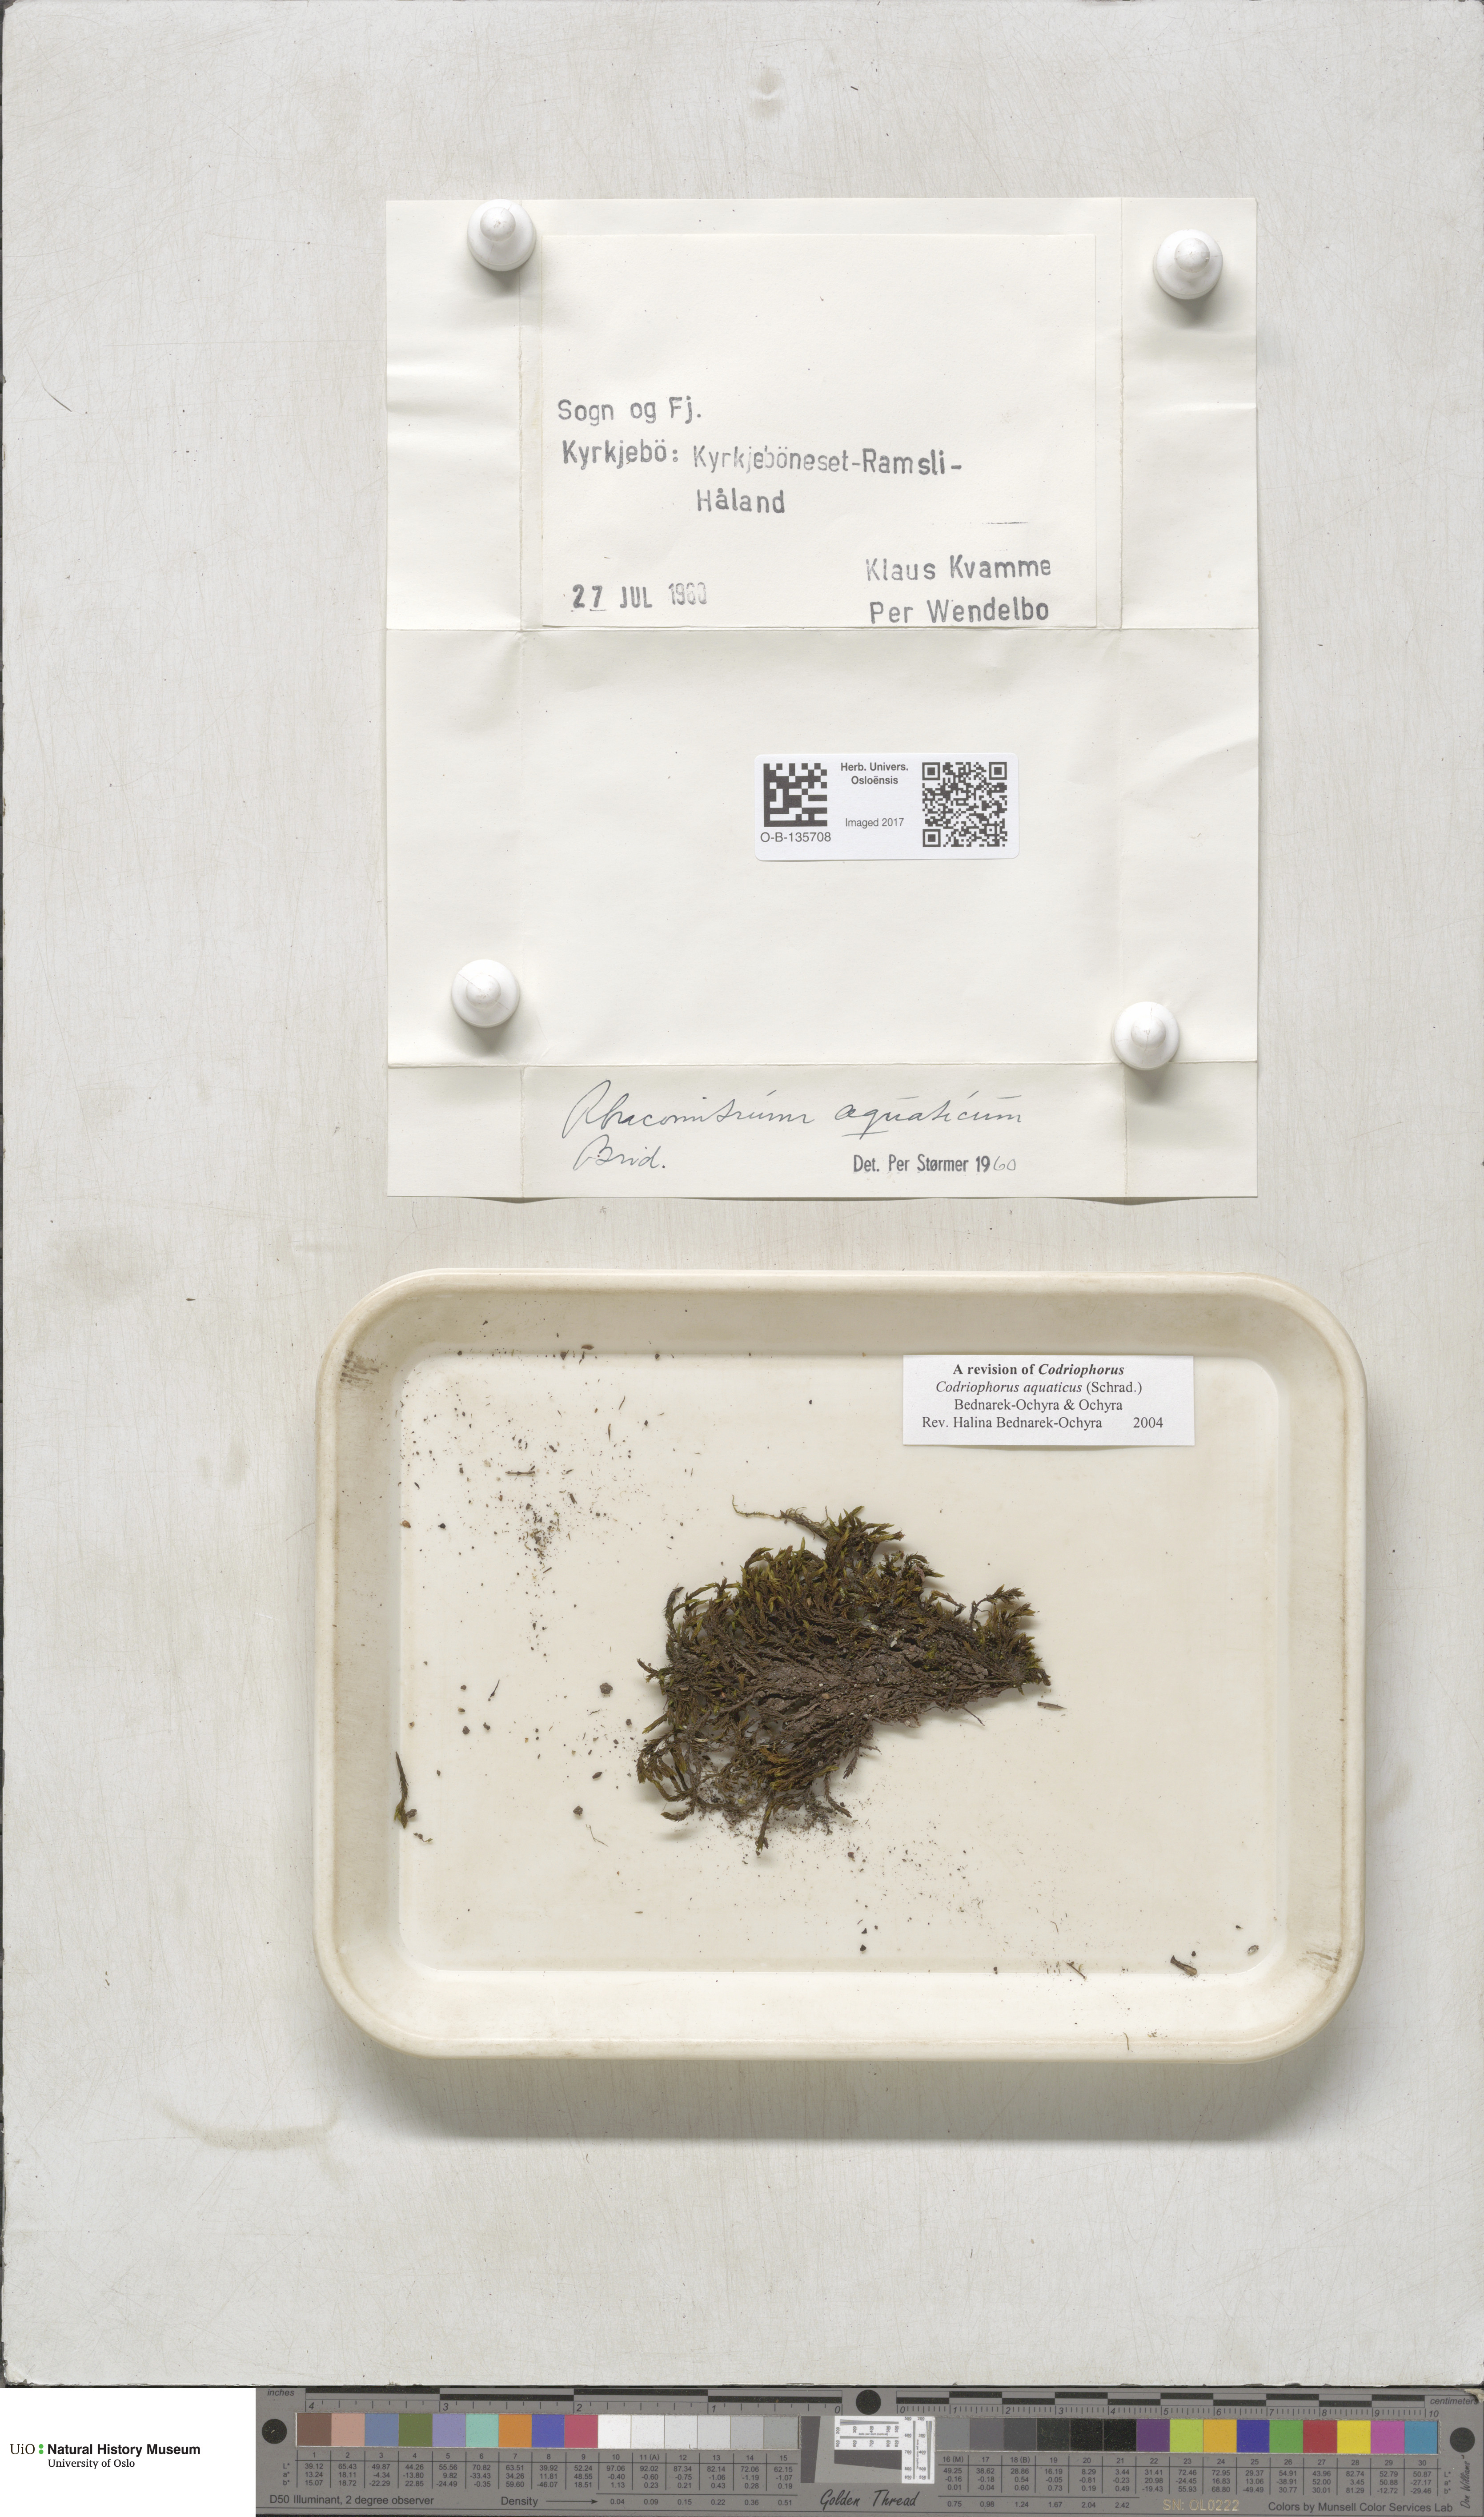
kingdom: Plantae
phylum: Bryophyta
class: Bryopsida
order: Grimmiales
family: Grimmiaceae
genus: Codriophorus
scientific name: Codriophorus aquaticus
